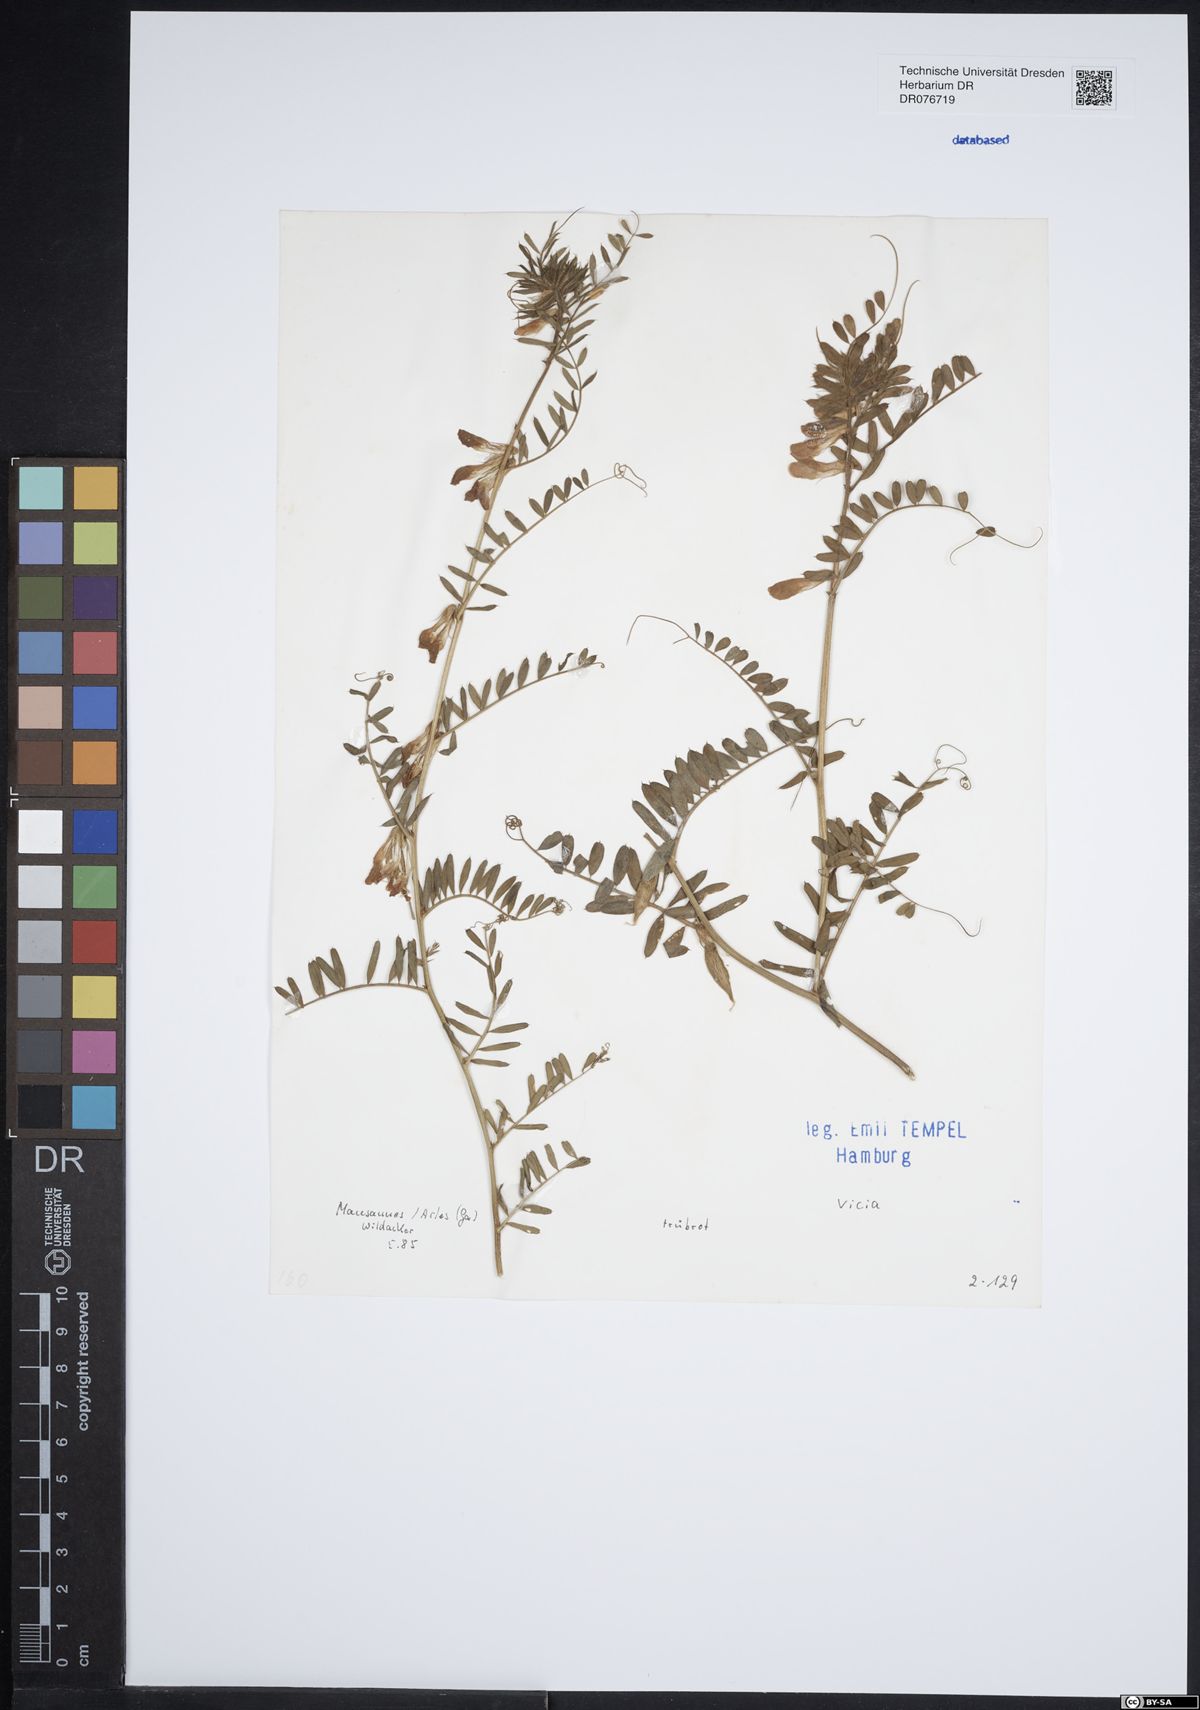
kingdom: Plantae
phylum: Tracheophyta
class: Magnoliopsida
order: Fabales
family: Fabaceae
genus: Vicia
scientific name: Vicia
